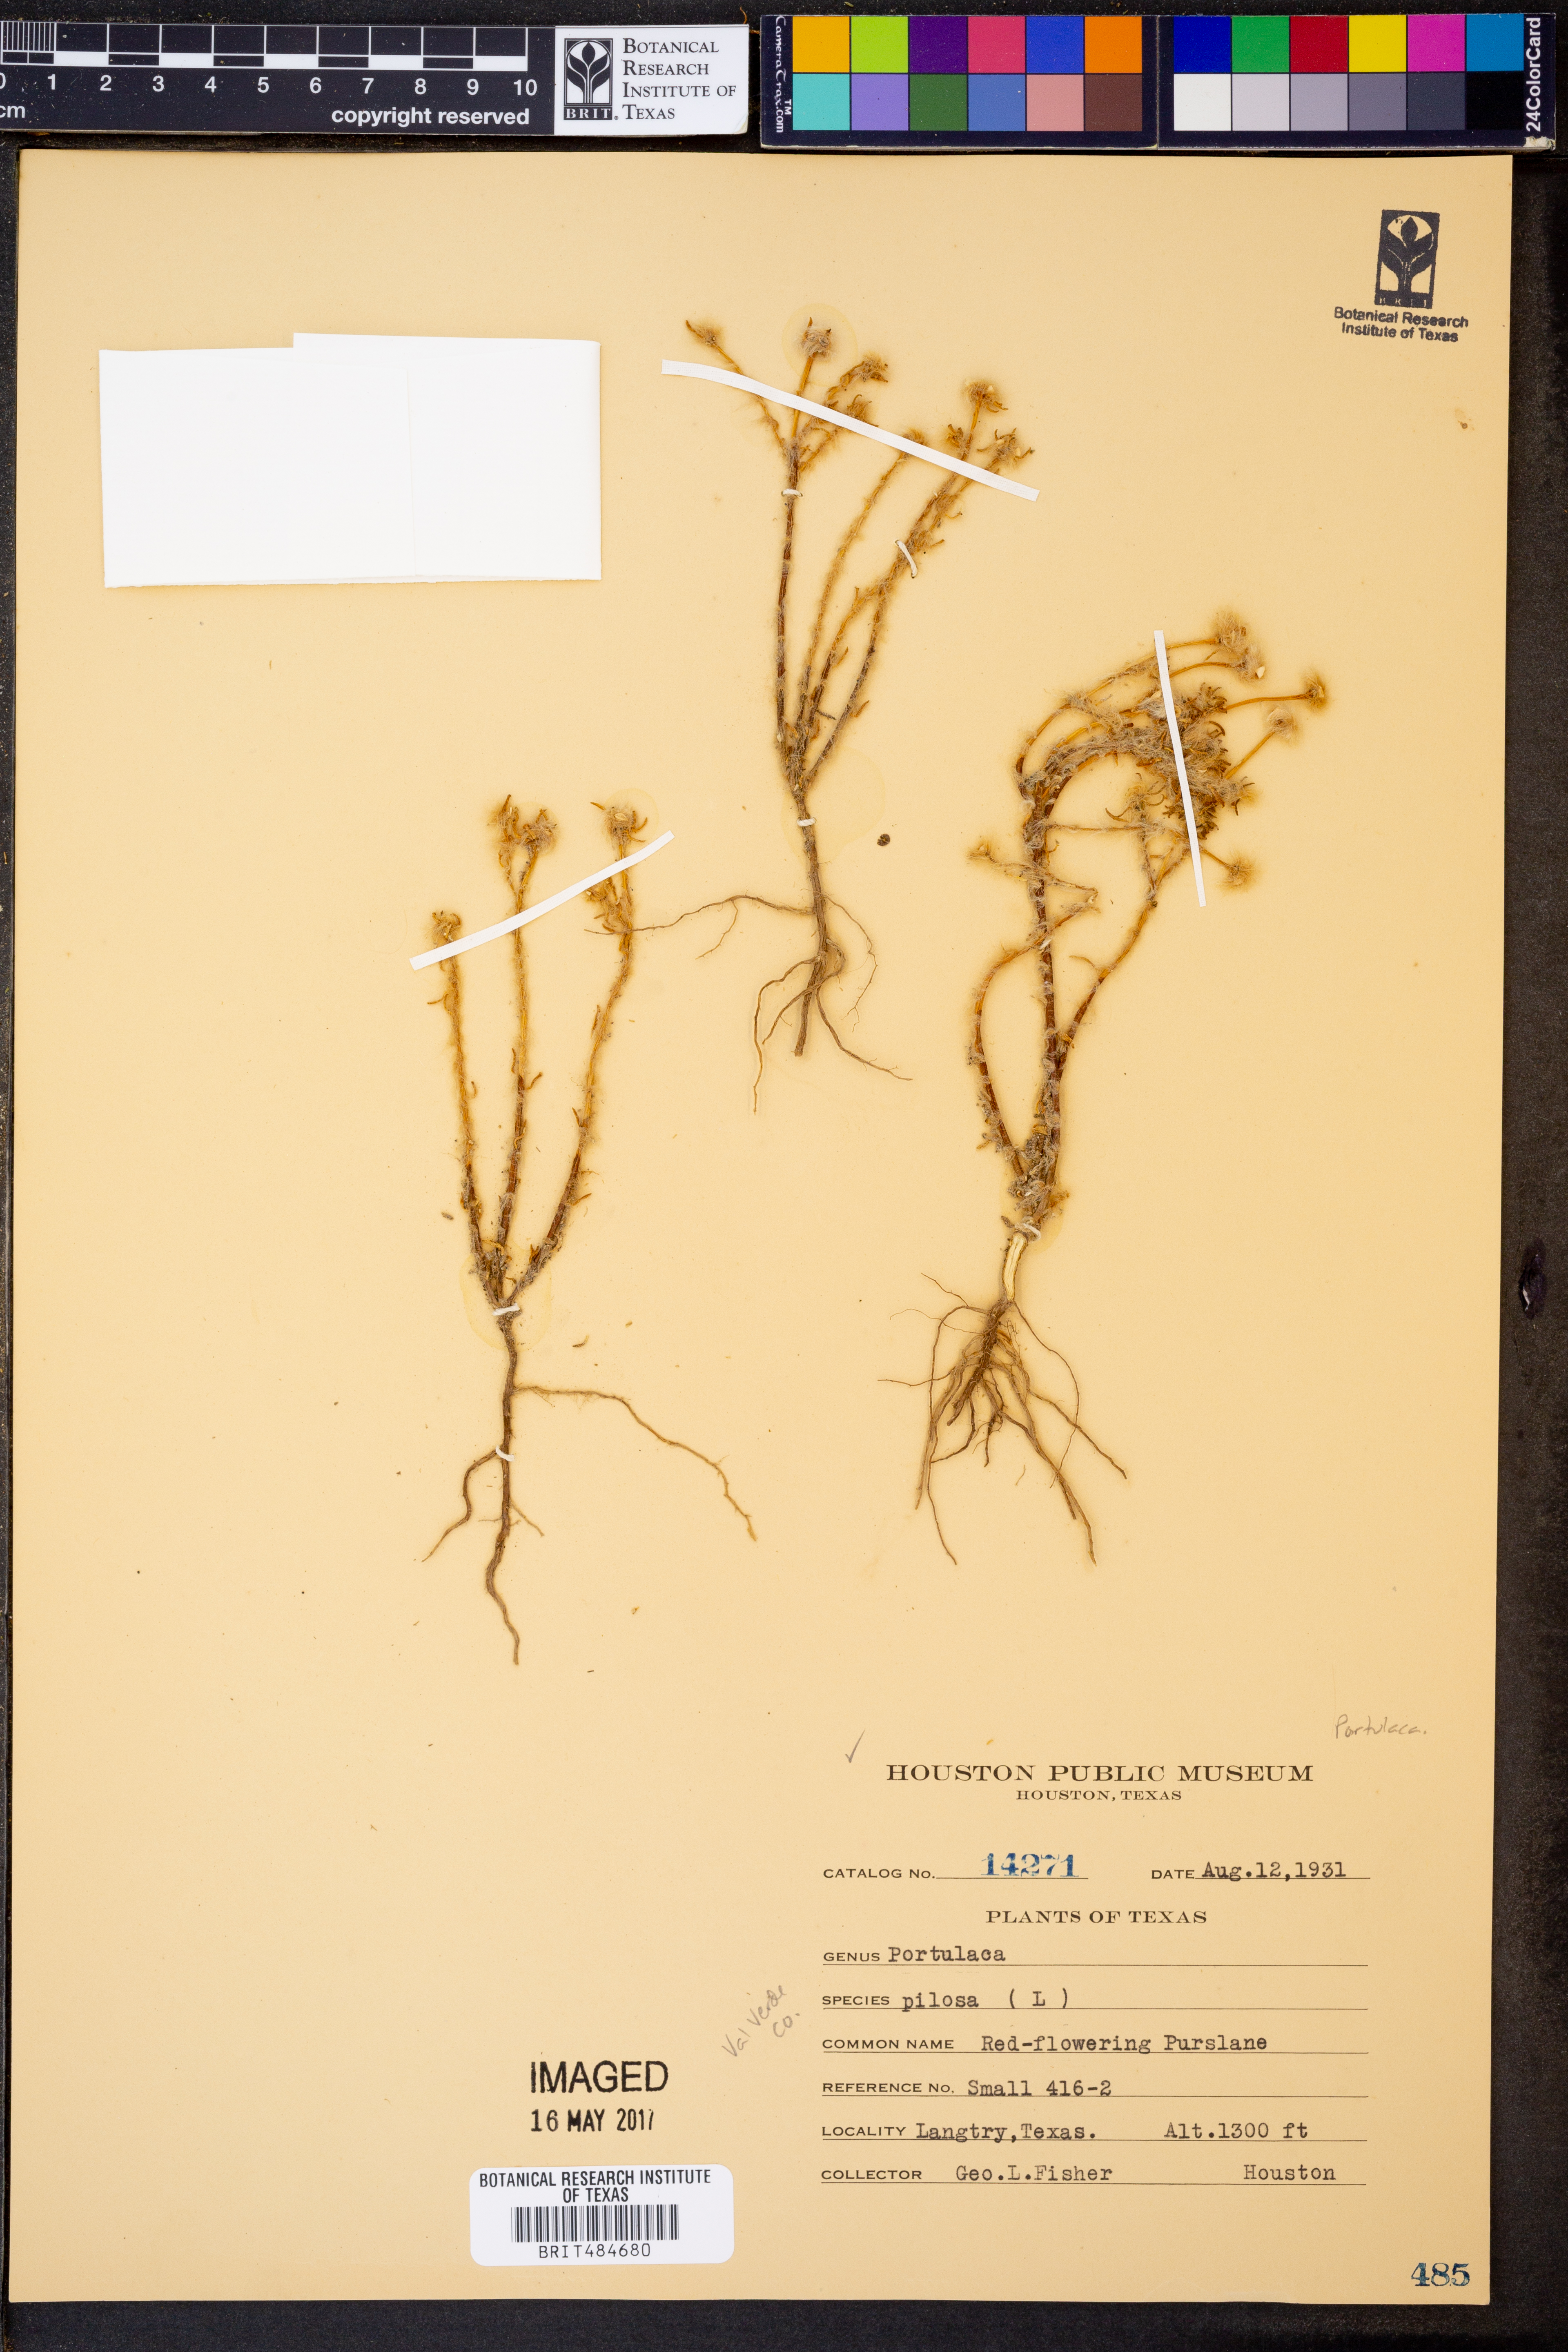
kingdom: Plantae
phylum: Tracheophyta
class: Magnoliopsida
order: Caryophyllales
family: Portulacaceae
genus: Portulaca
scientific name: Portulaca pilosa
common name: Kiss me quick
